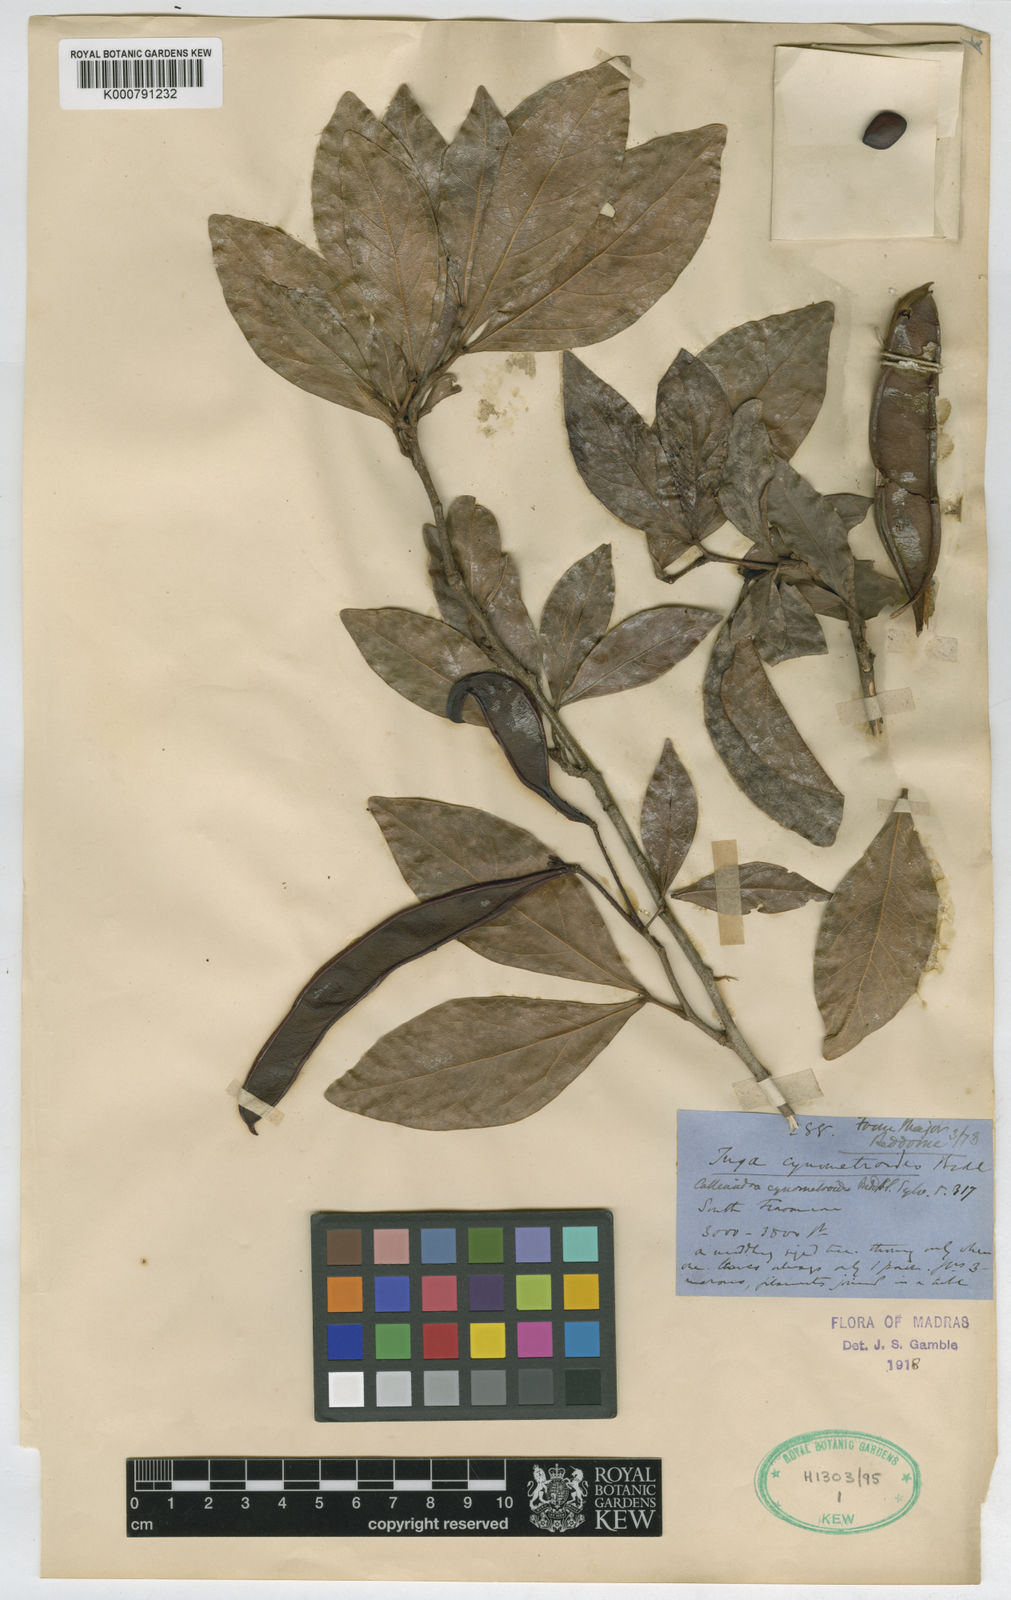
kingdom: Plantae
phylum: Tracheophyta
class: Magnoliopsida
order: Fabales
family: Fabaceae
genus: Sanjappa
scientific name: Sanjappa cynometroides
